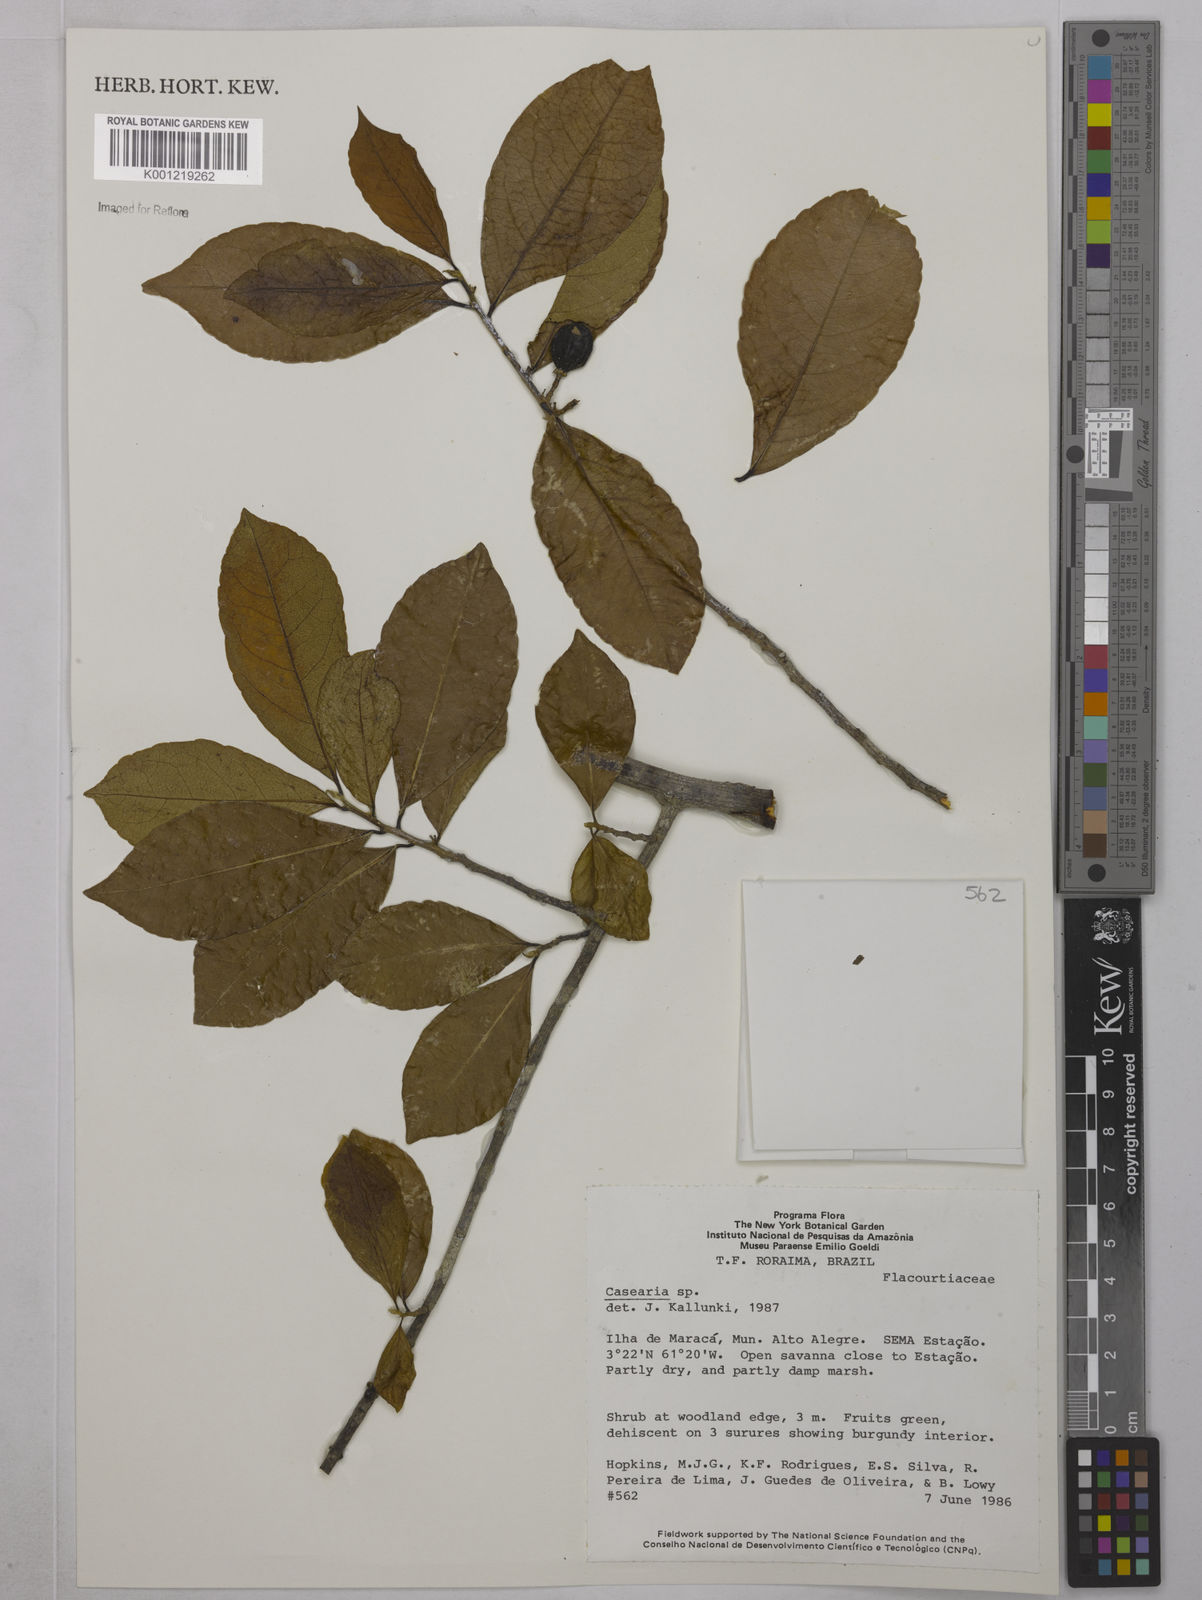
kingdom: Plantae
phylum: Tracheophyta
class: Magnoliopsida
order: Malpighiales
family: Salicaceae
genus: Casearia
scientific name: Casearia
